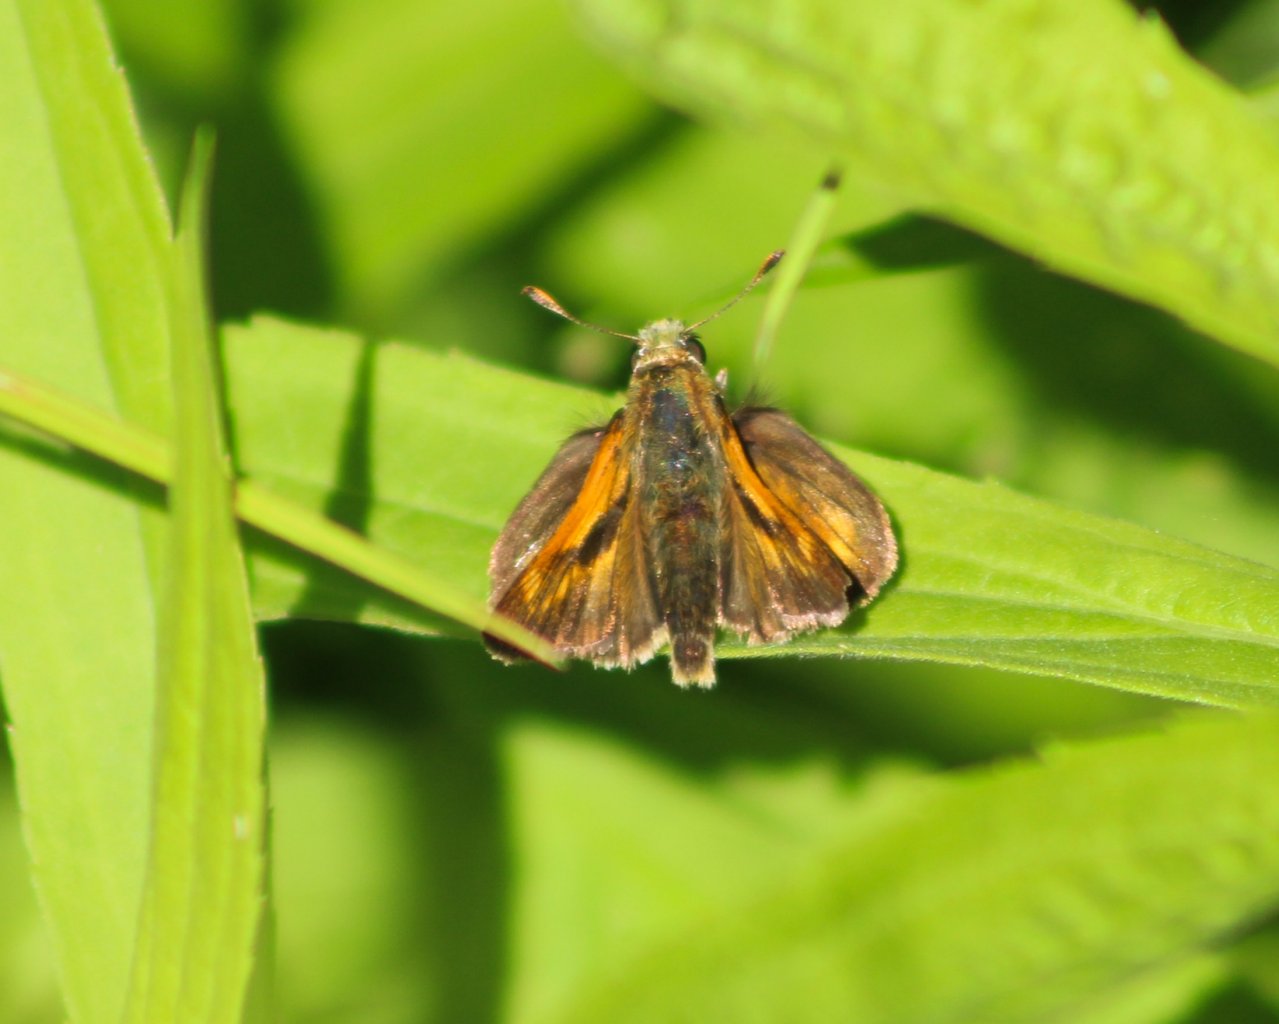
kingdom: Animalia
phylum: Arthropoda
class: Insecta
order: Lepidoptera
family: Hesperiidae
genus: Polites
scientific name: Polites
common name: Long Dash Skipper
